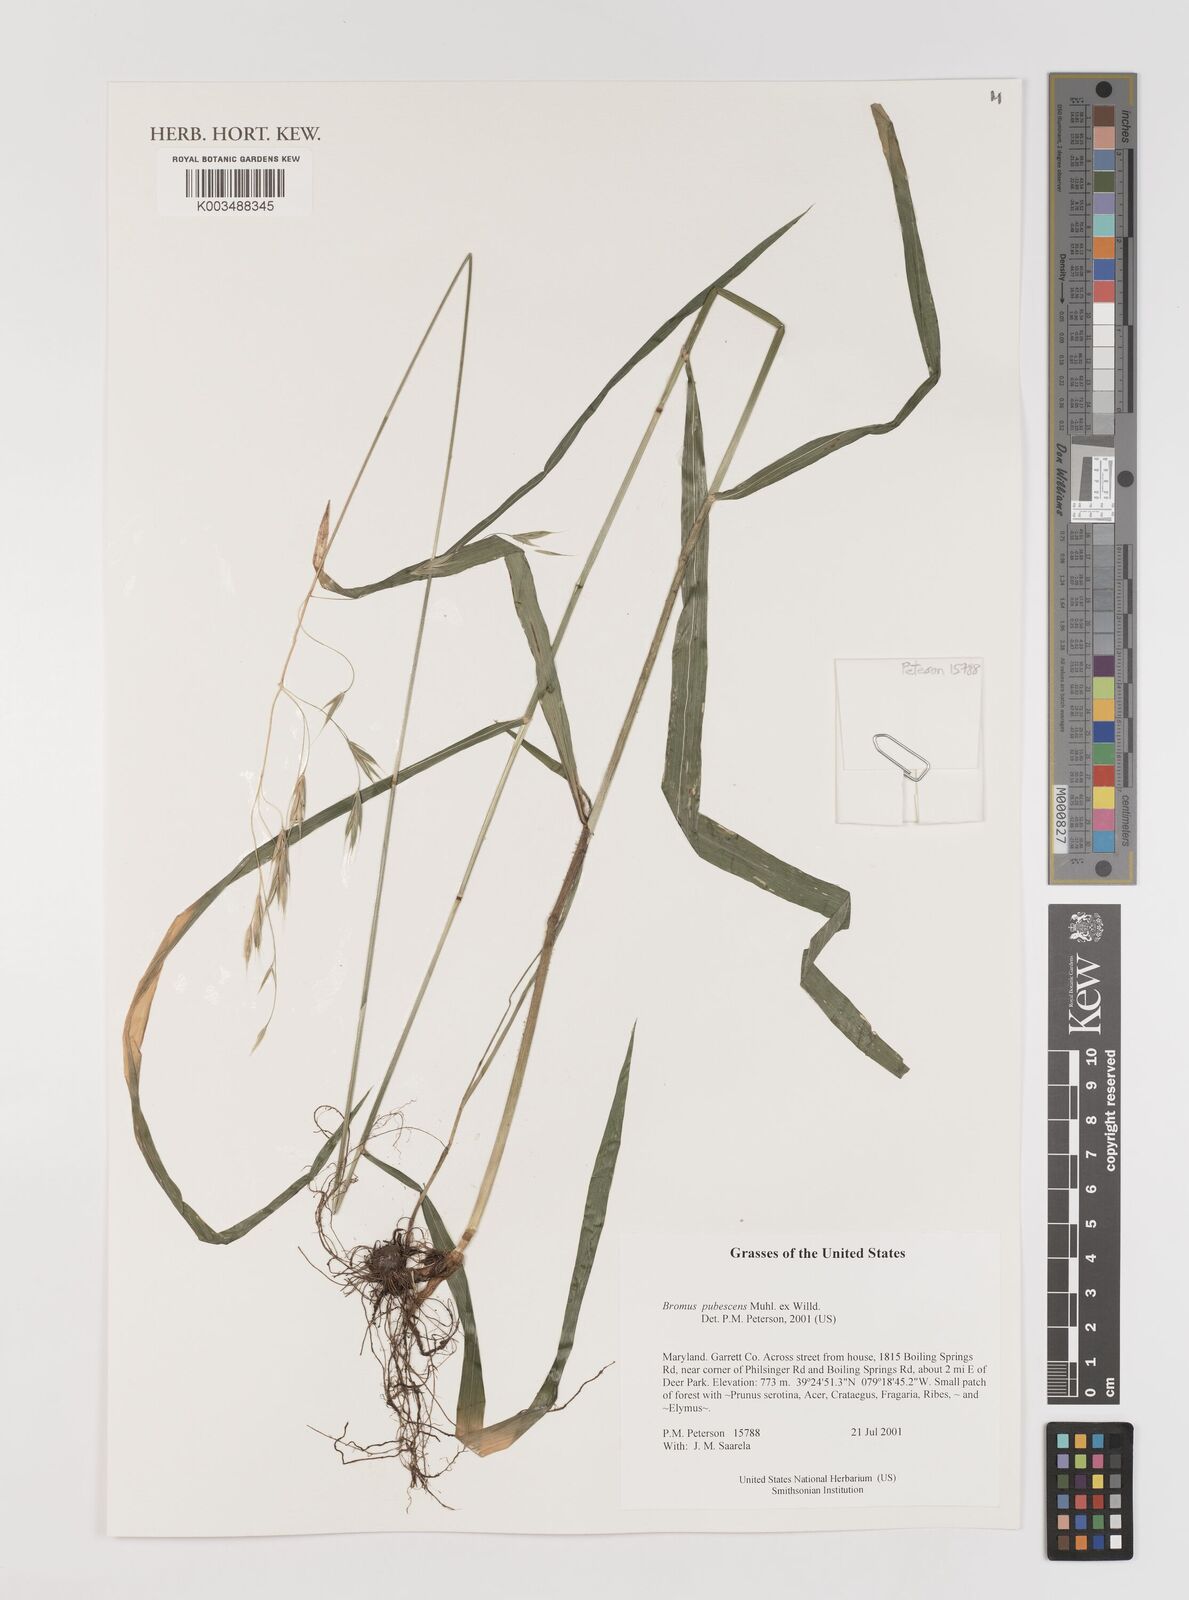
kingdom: Plantae
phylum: Tracheophyta
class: Liliopsida
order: Poales
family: Poaceae
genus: Bromus
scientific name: Bromus pubescens
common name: Hairy wood brome grass
